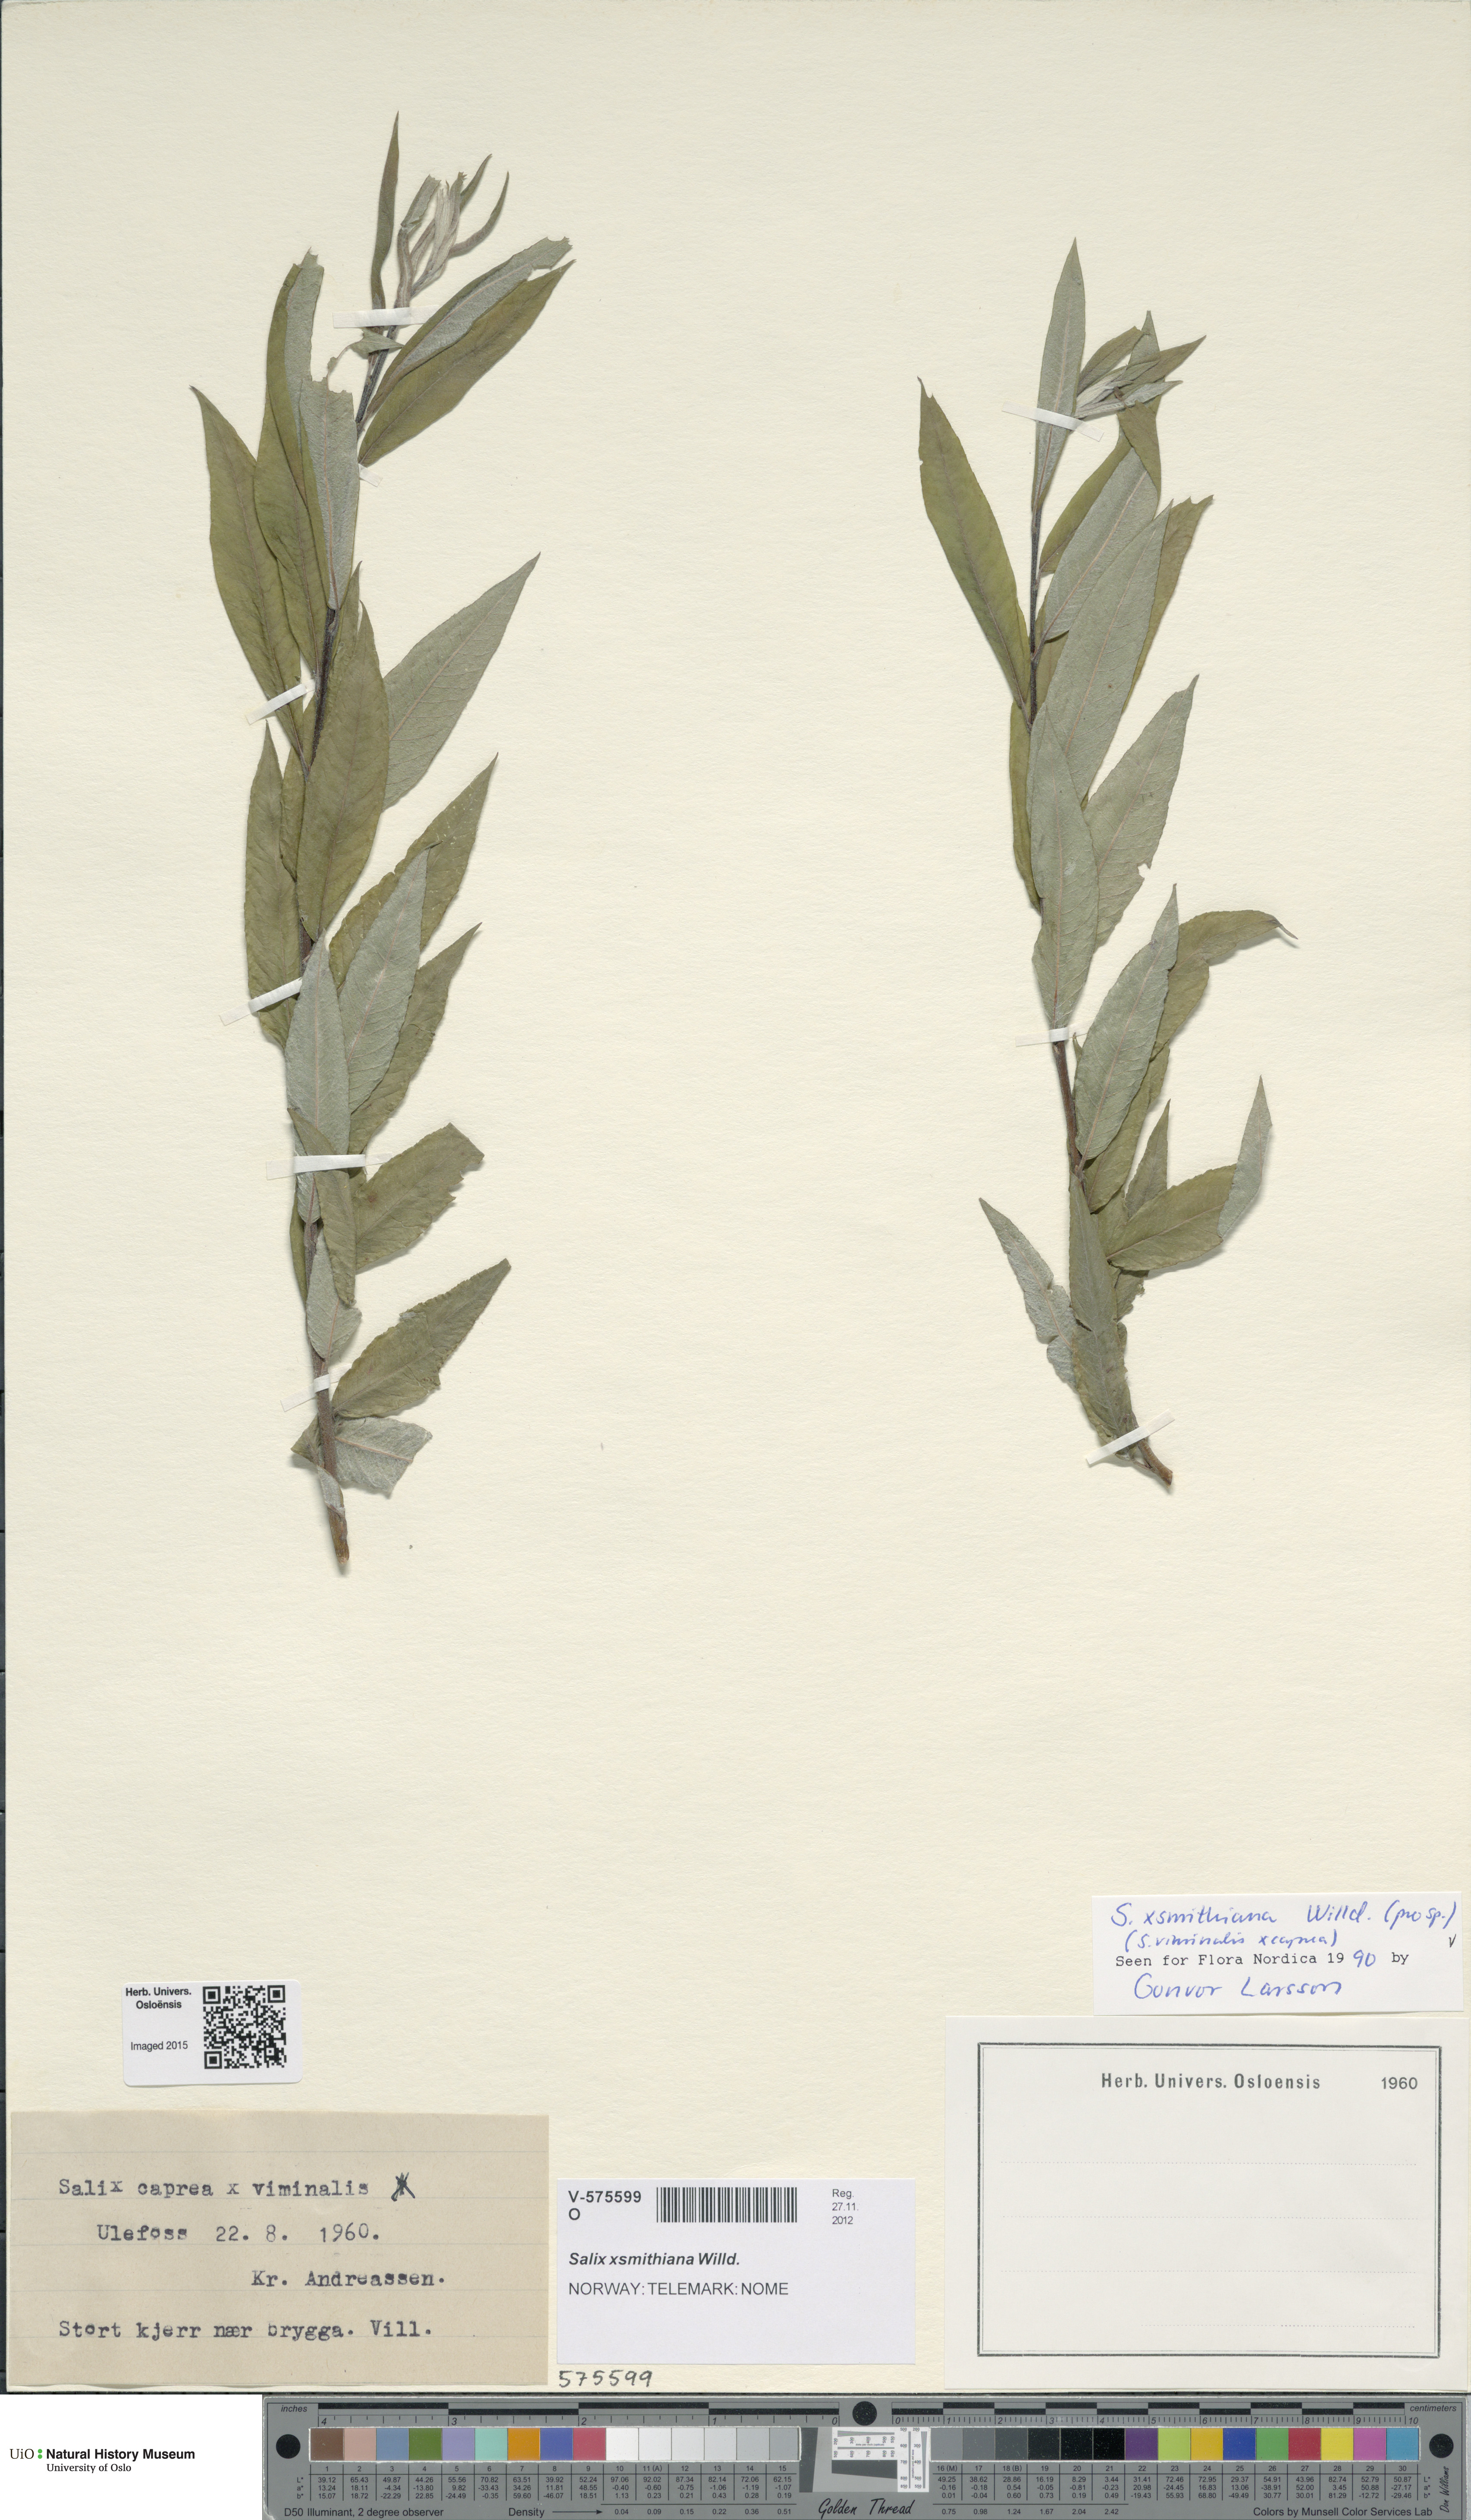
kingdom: Plantae
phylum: Tracheophyta
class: Magnoliopsida
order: Malpighiales
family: Salicaceae
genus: Salix
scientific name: Salix smithiana
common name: Silky-leaved osier
